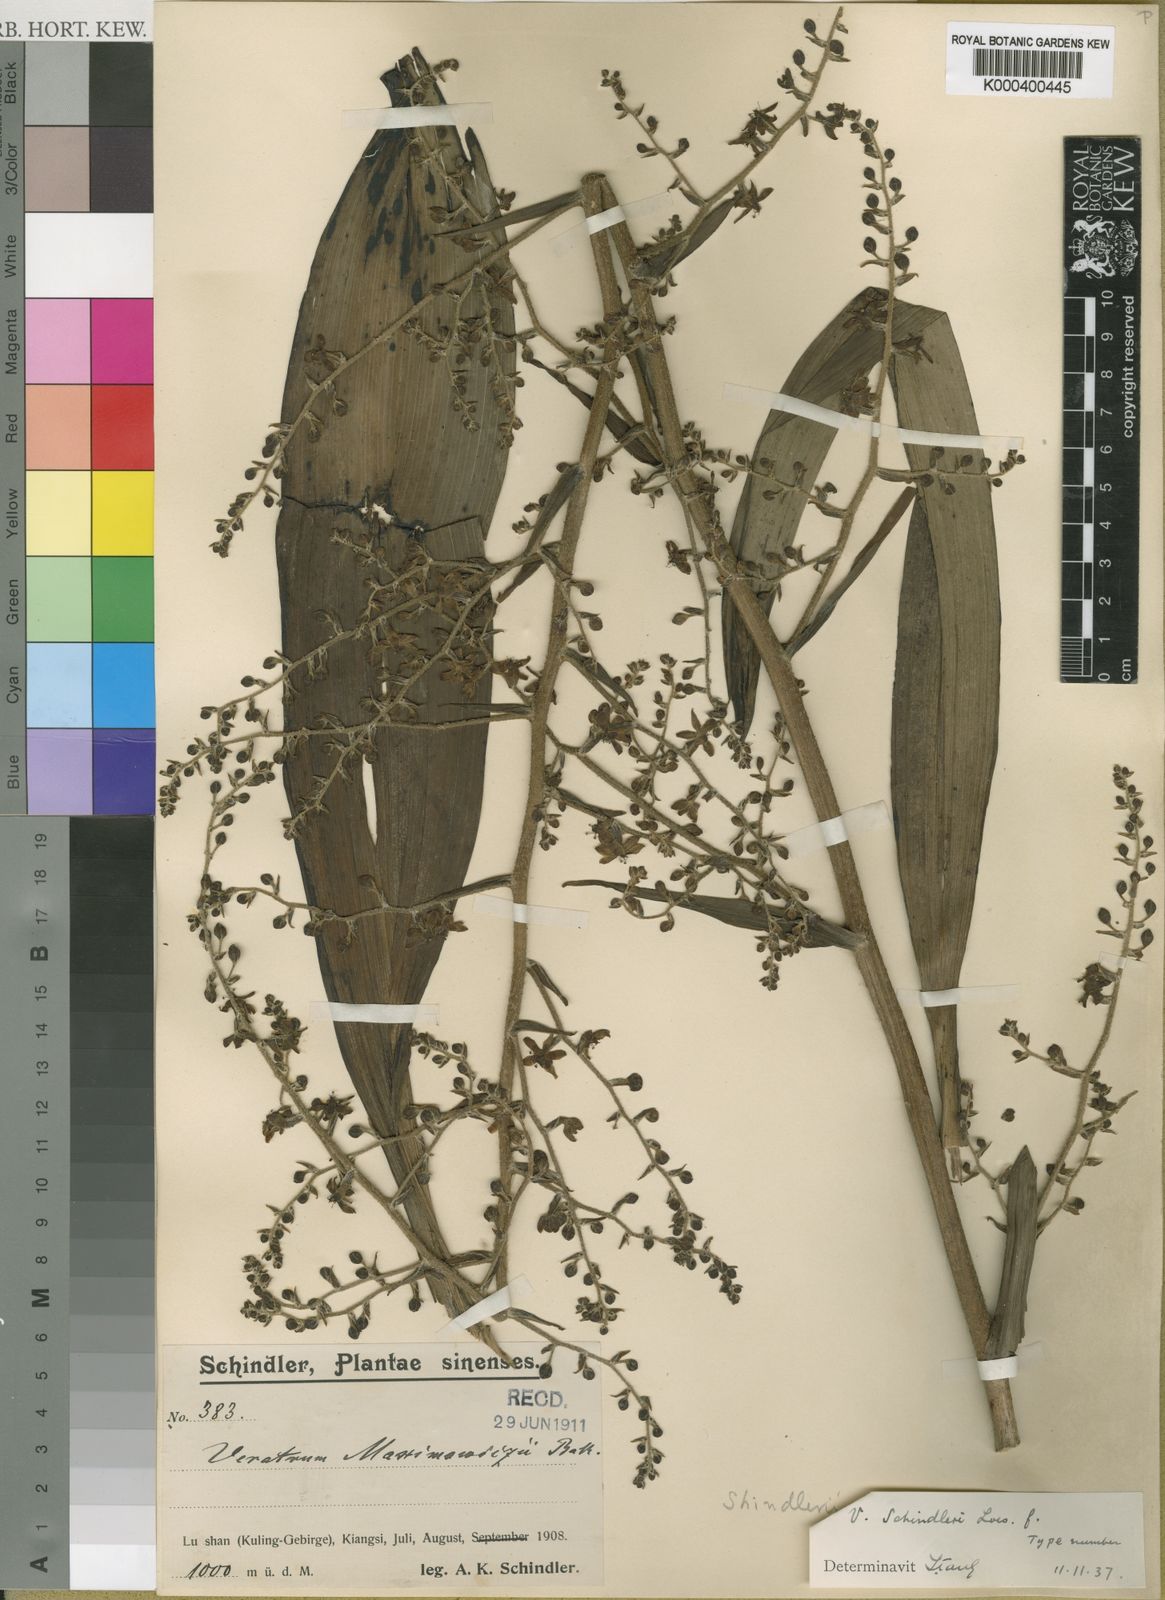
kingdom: Plantae
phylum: Tracheophyta
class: Liliopsida
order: Liliales
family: Melanthiaceae
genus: Veratrum
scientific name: Veratrum maackii
